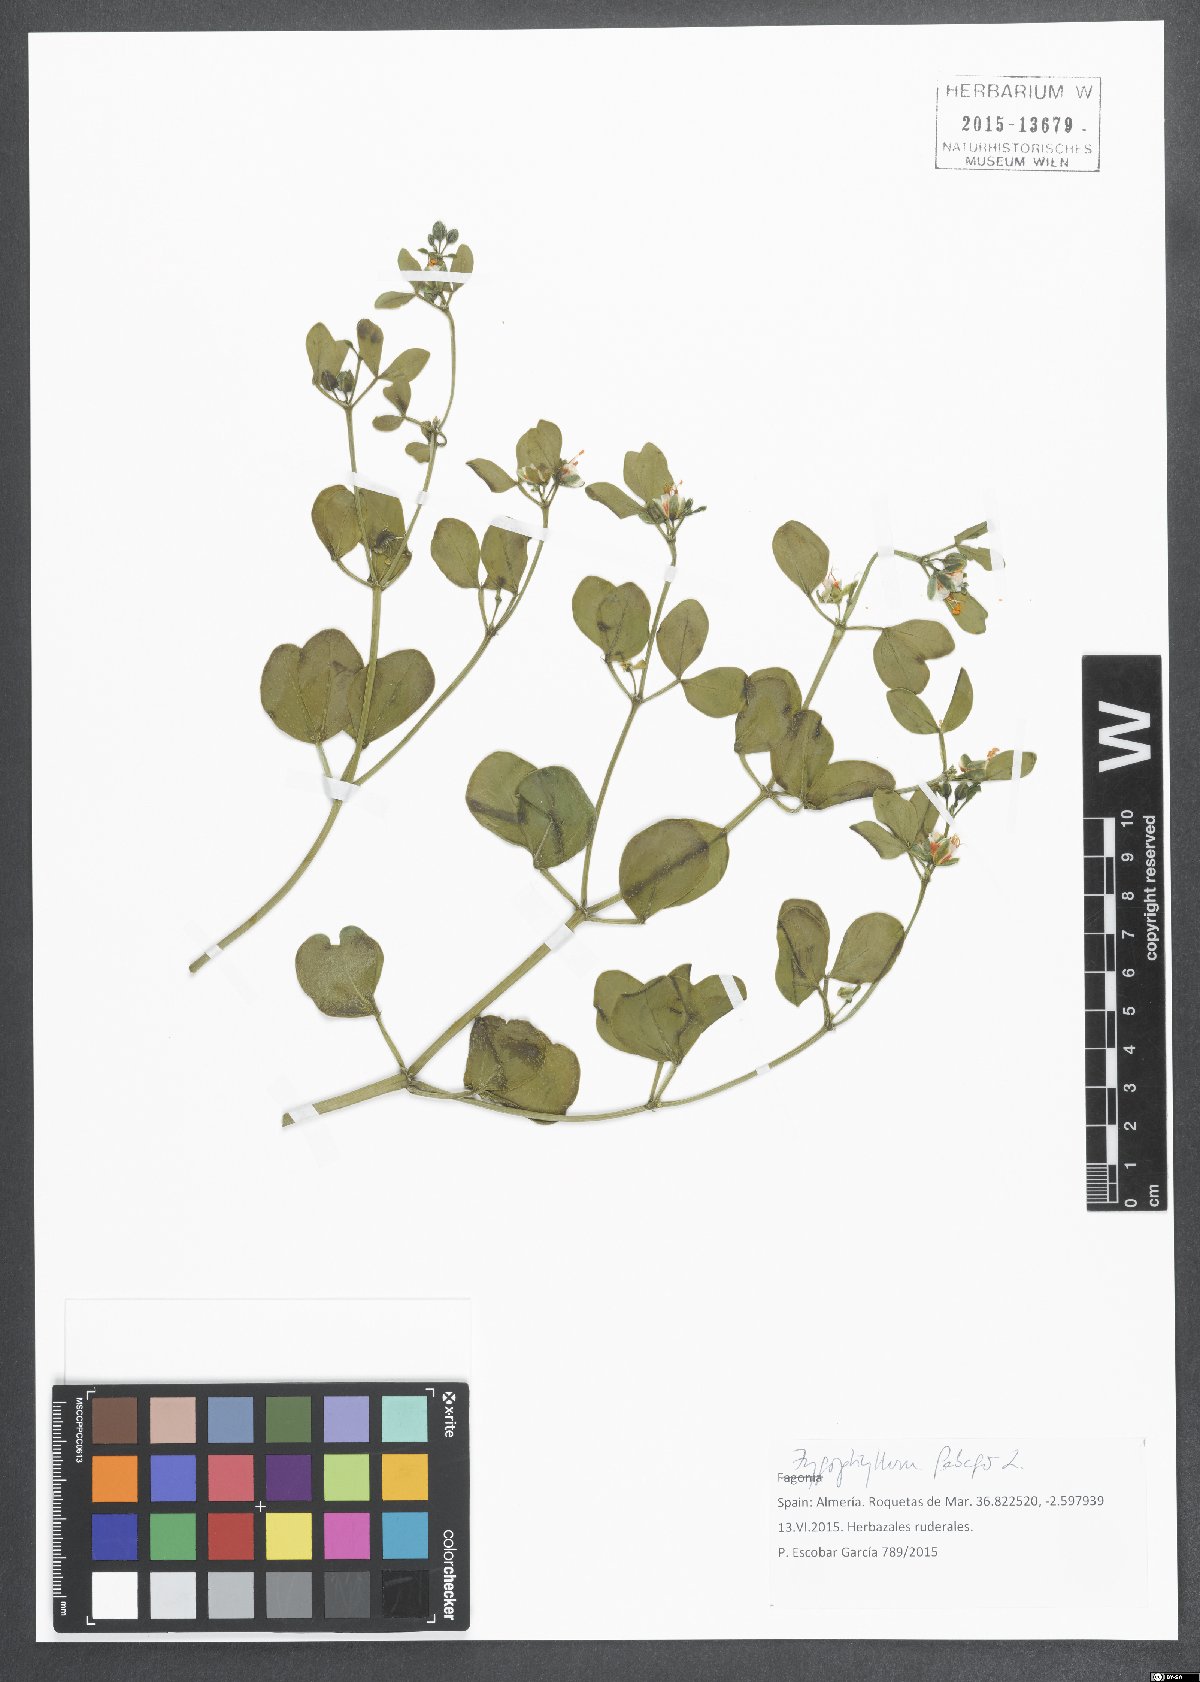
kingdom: Plantae
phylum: Tracheophyta
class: Magnoliopsida
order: Zygophyllales
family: Zygophyllaceae
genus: Zygophyllum
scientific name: Zygophyllum fabago
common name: Syrian beancaper
